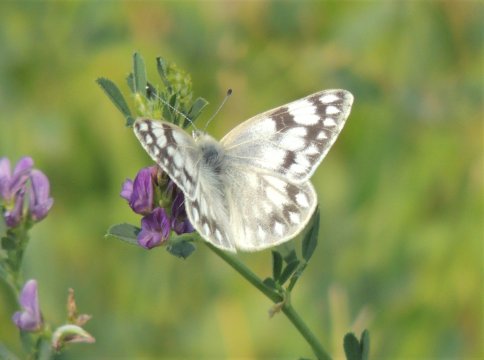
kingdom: Animalia
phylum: Arthropoda
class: Insecta
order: Lepidoptera
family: Pieridae
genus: Pontia
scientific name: Pontia protodice
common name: Checkered White
